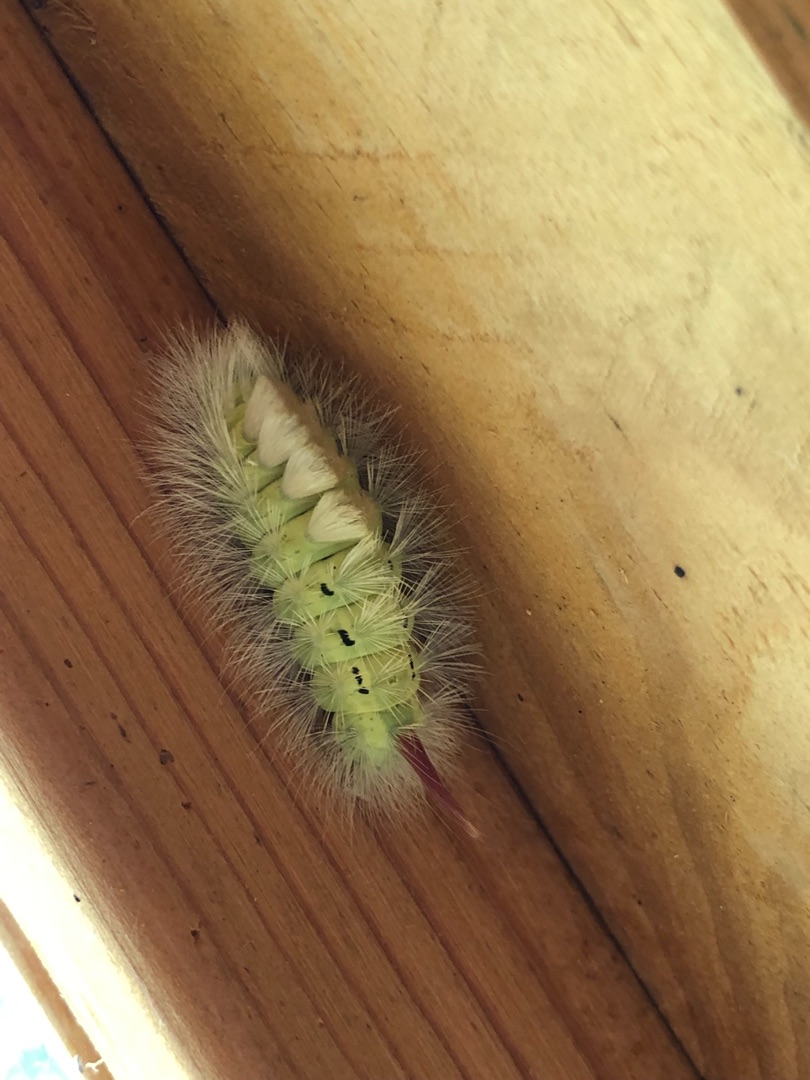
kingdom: Animalia
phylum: Arthropoda
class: Insecta
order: Lepidoptera
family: Erebidae
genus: Calliteara
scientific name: Calliteara pudibunda
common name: Bøgenonne
